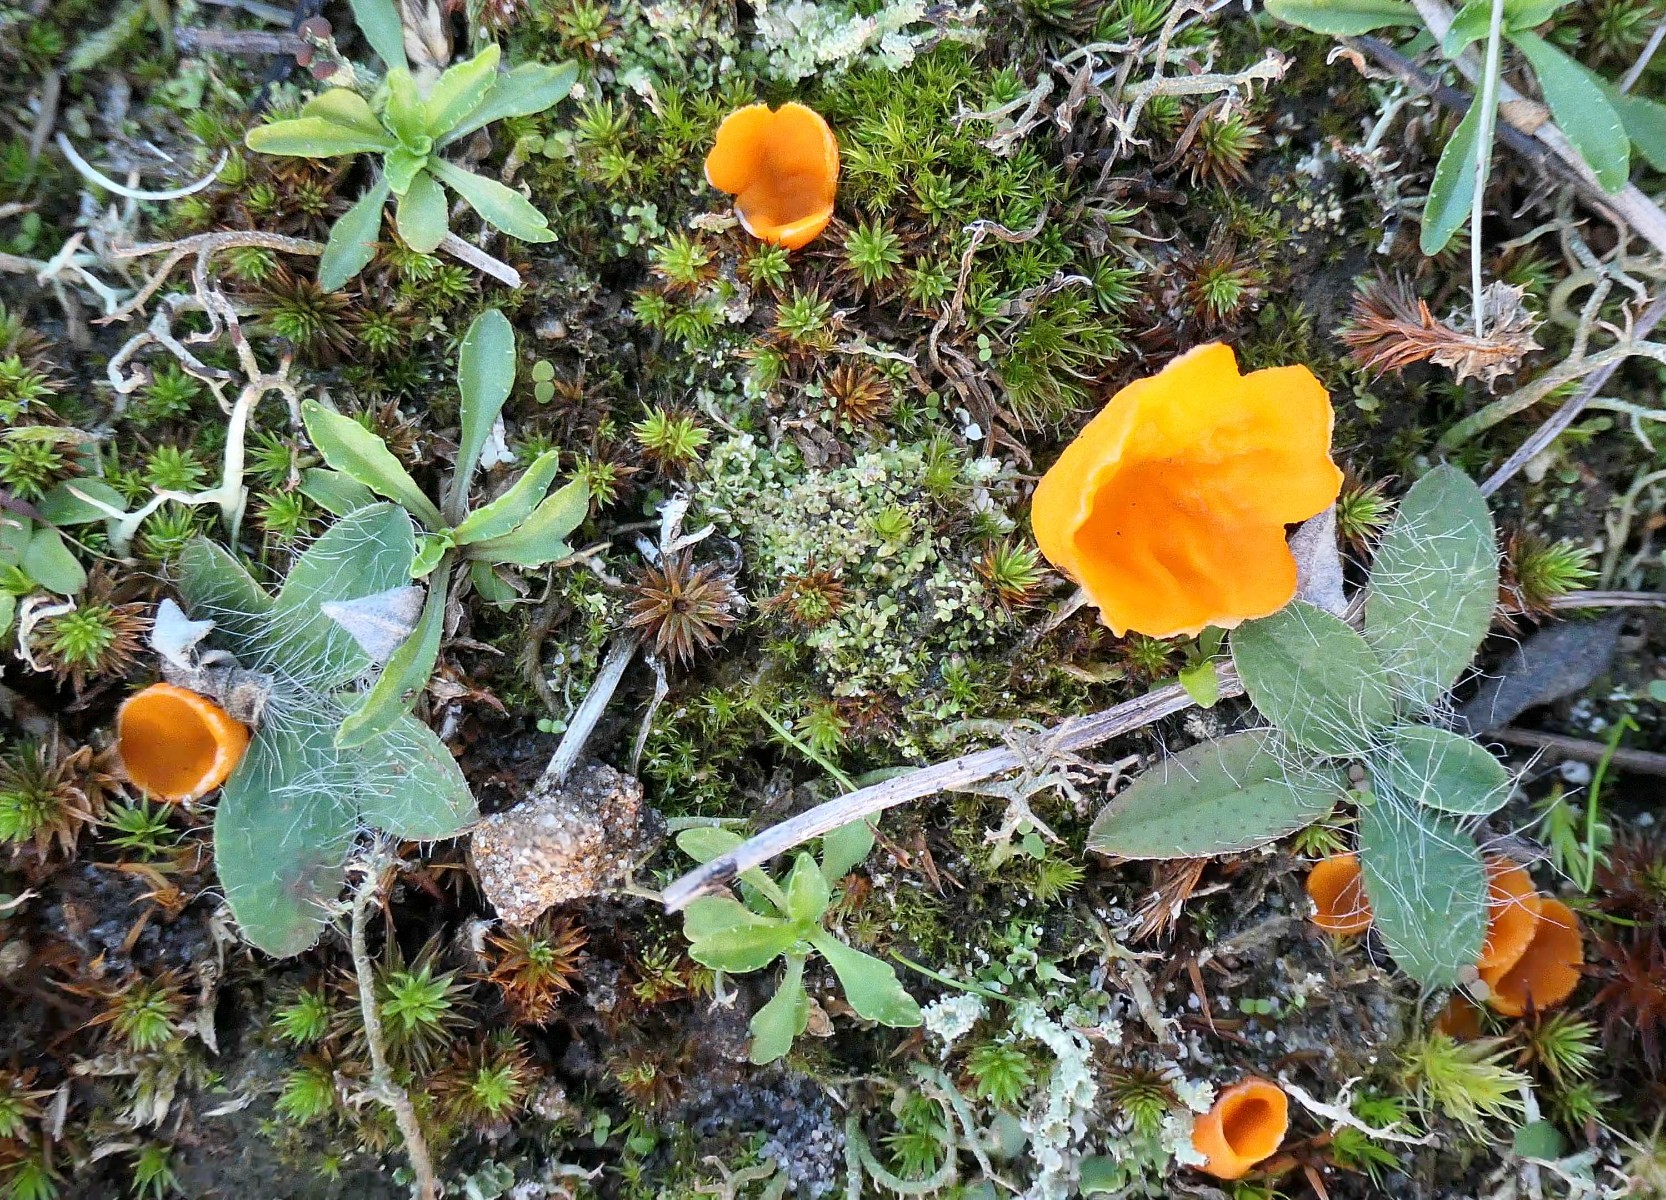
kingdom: Fungi
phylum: Ascomycota
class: Pezizomycetes
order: Pezizales
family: Pyronemataceae
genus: Neottiella
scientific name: Neottiella vivida
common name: sand-mosbæger
